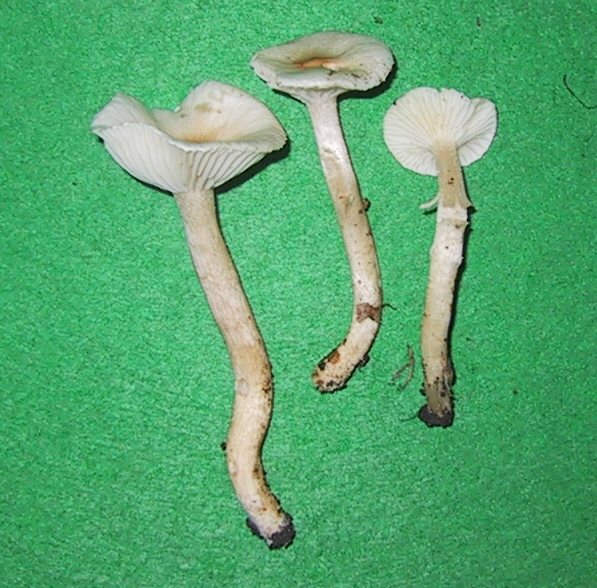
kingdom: Fungi
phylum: Basidiomycota
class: Agaricomycetes
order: Agaricales
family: Hygrophoraceae
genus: Hygrophorus
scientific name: Hygrophorus unicolor
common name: orangeøjet sneglehat
